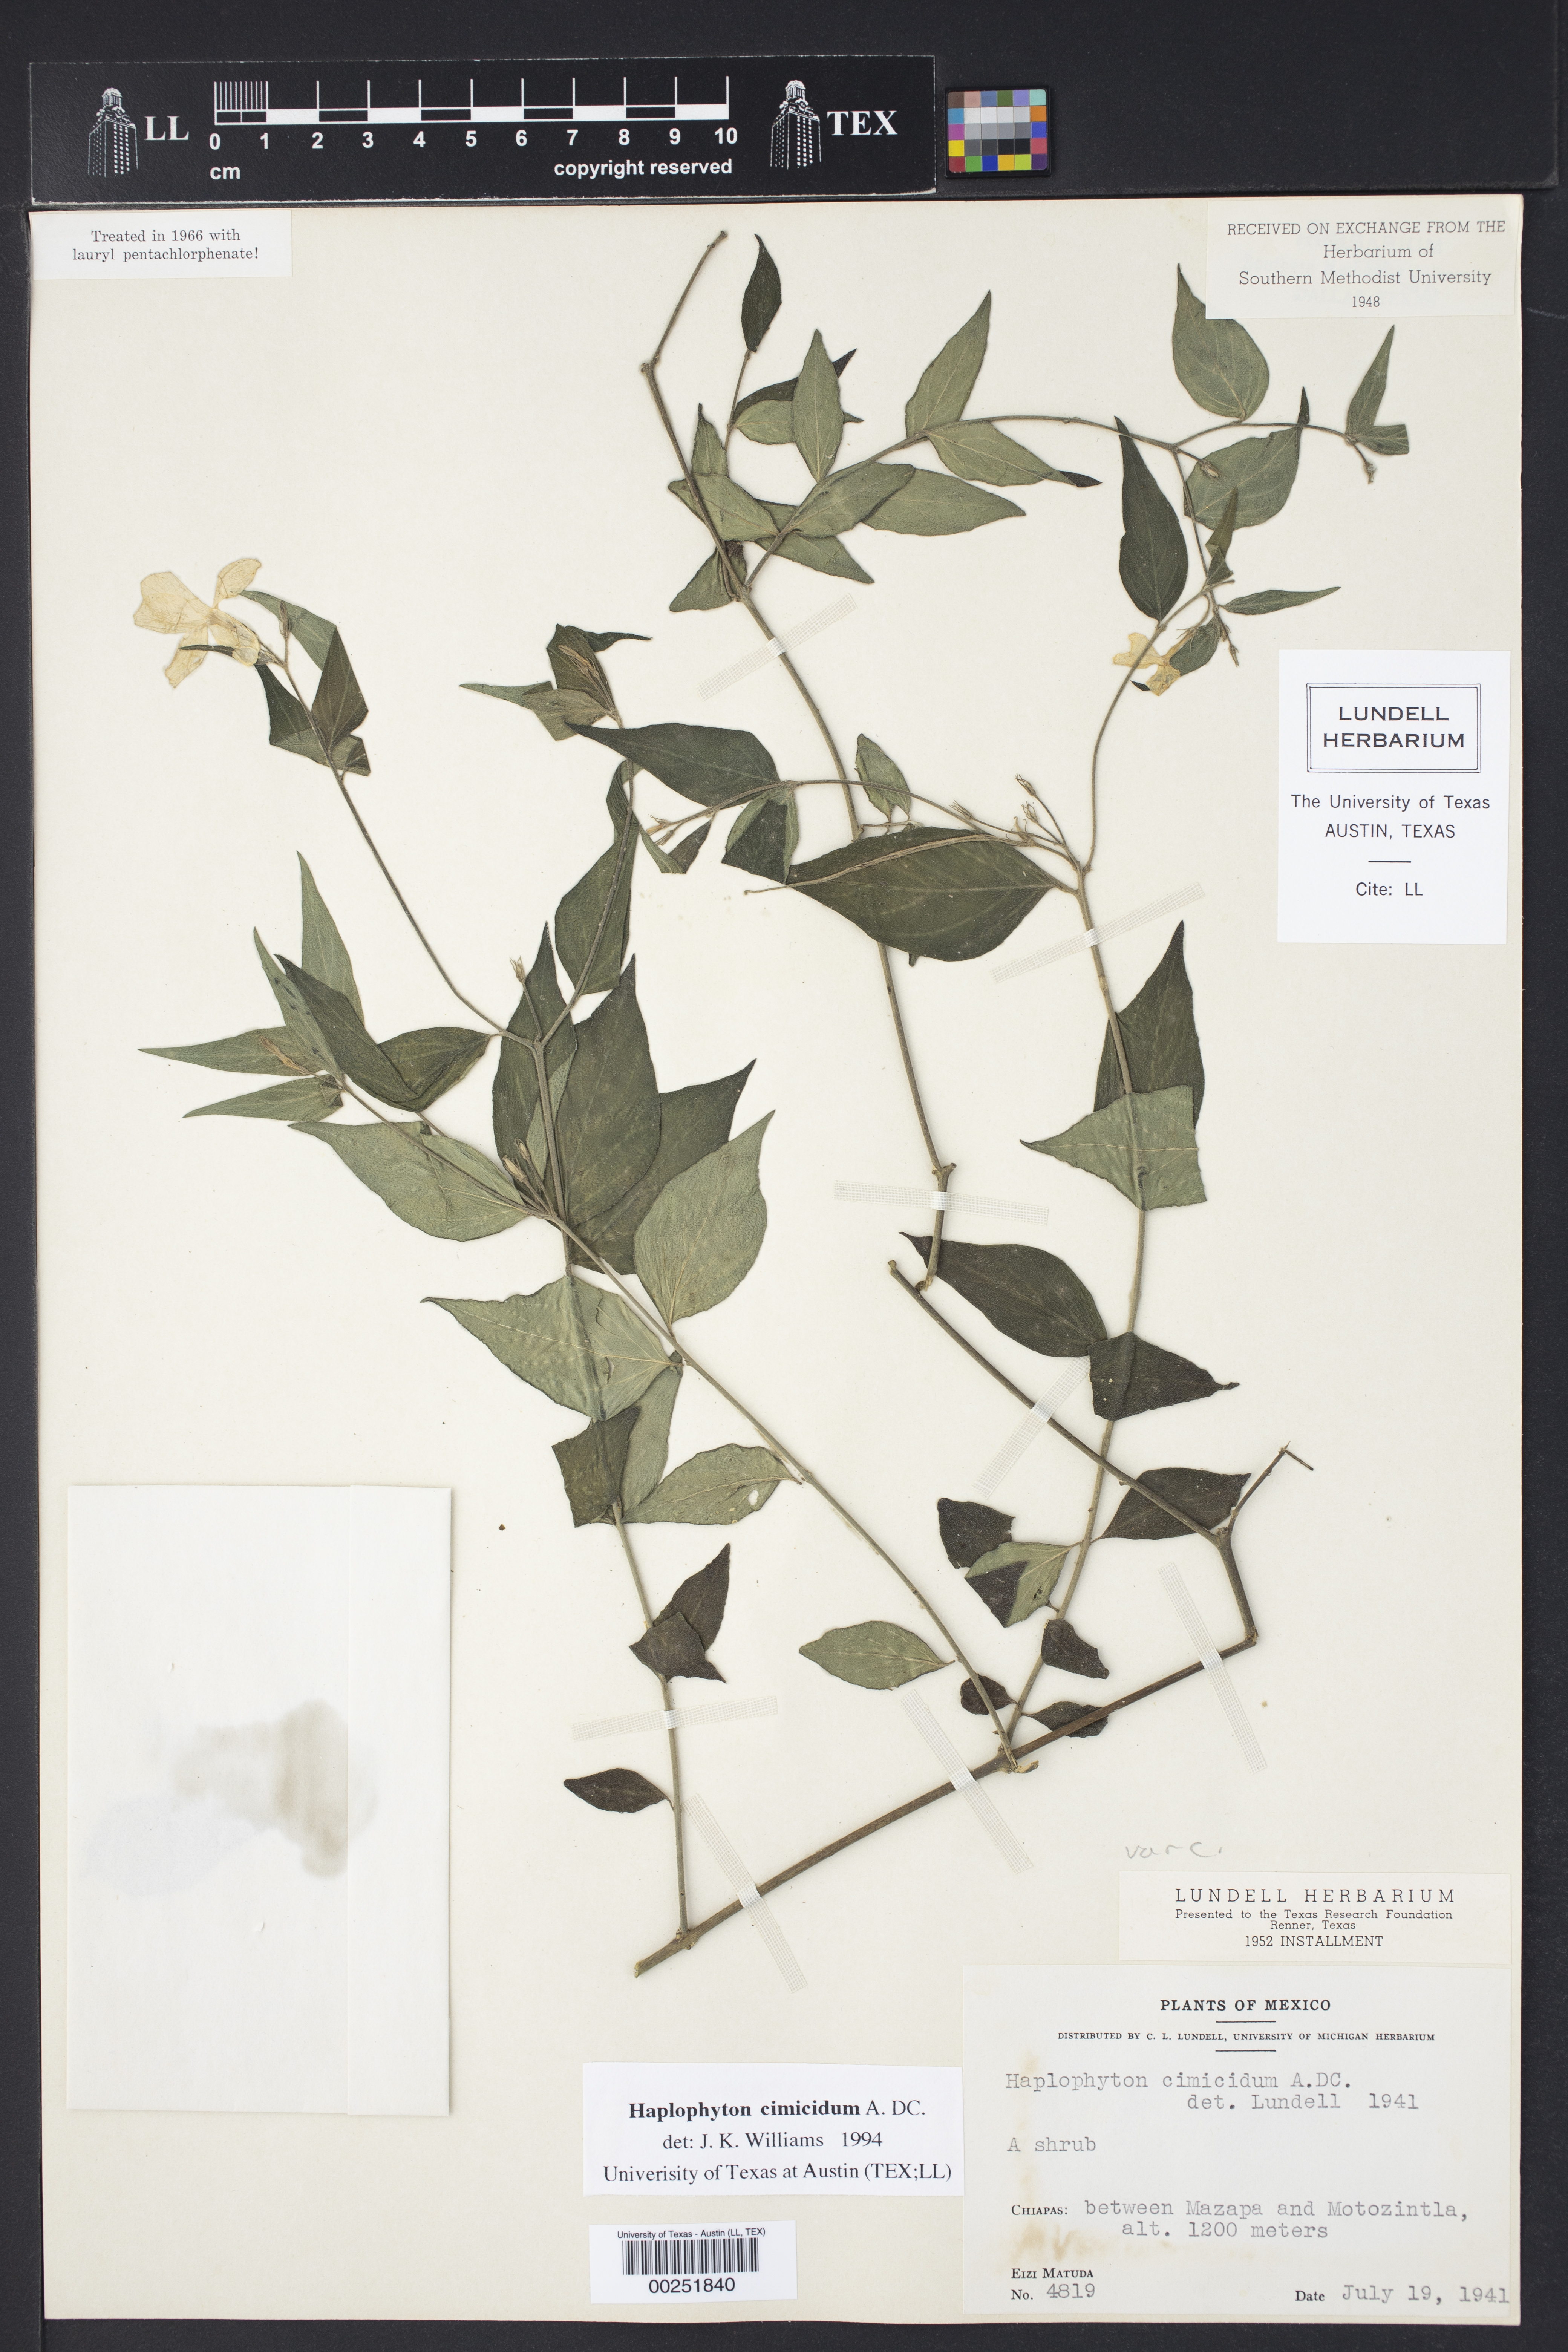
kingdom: Plantae
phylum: Tracheophyta
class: Magnoliopsida
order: Gentianales
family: Apocynaceae
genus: Haplophyton
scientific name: Haplophyton cimicidum
